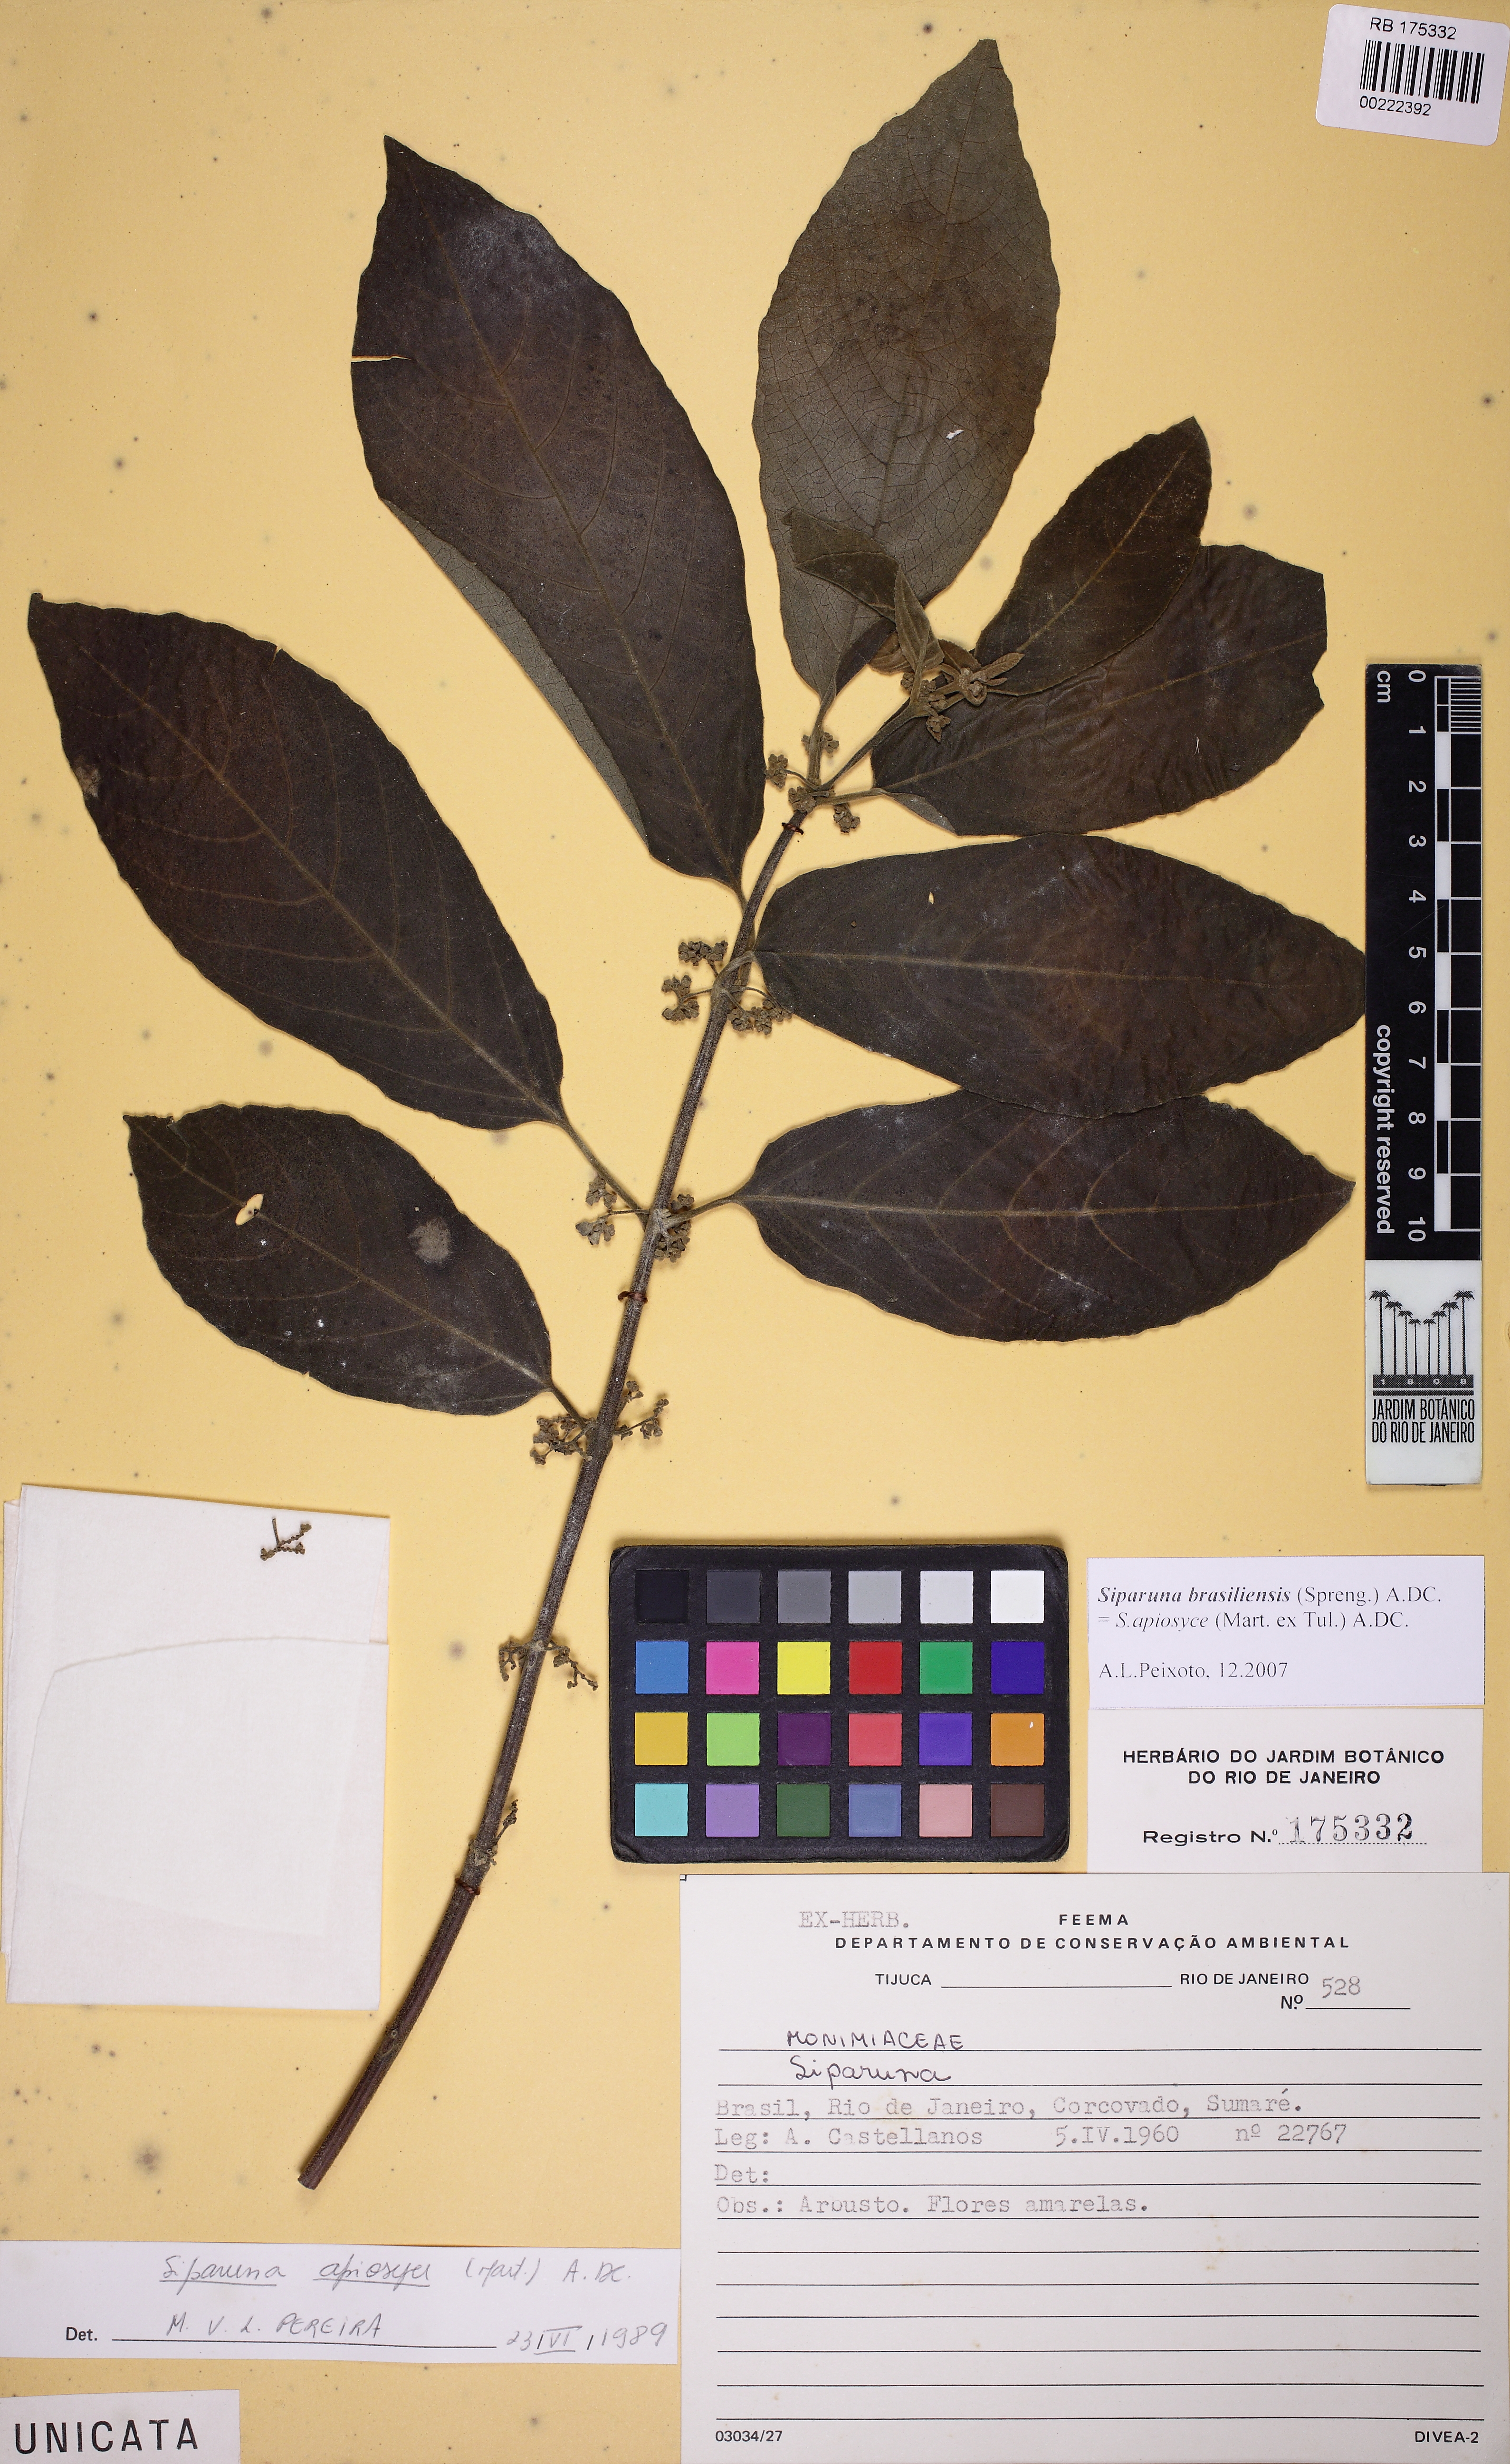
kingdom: Plantae
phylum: Tracheophyta
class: Magnoliopsida
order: Laurales
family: Siparunaceae
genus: Siparuna
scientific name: Siparuna brasiliensis
